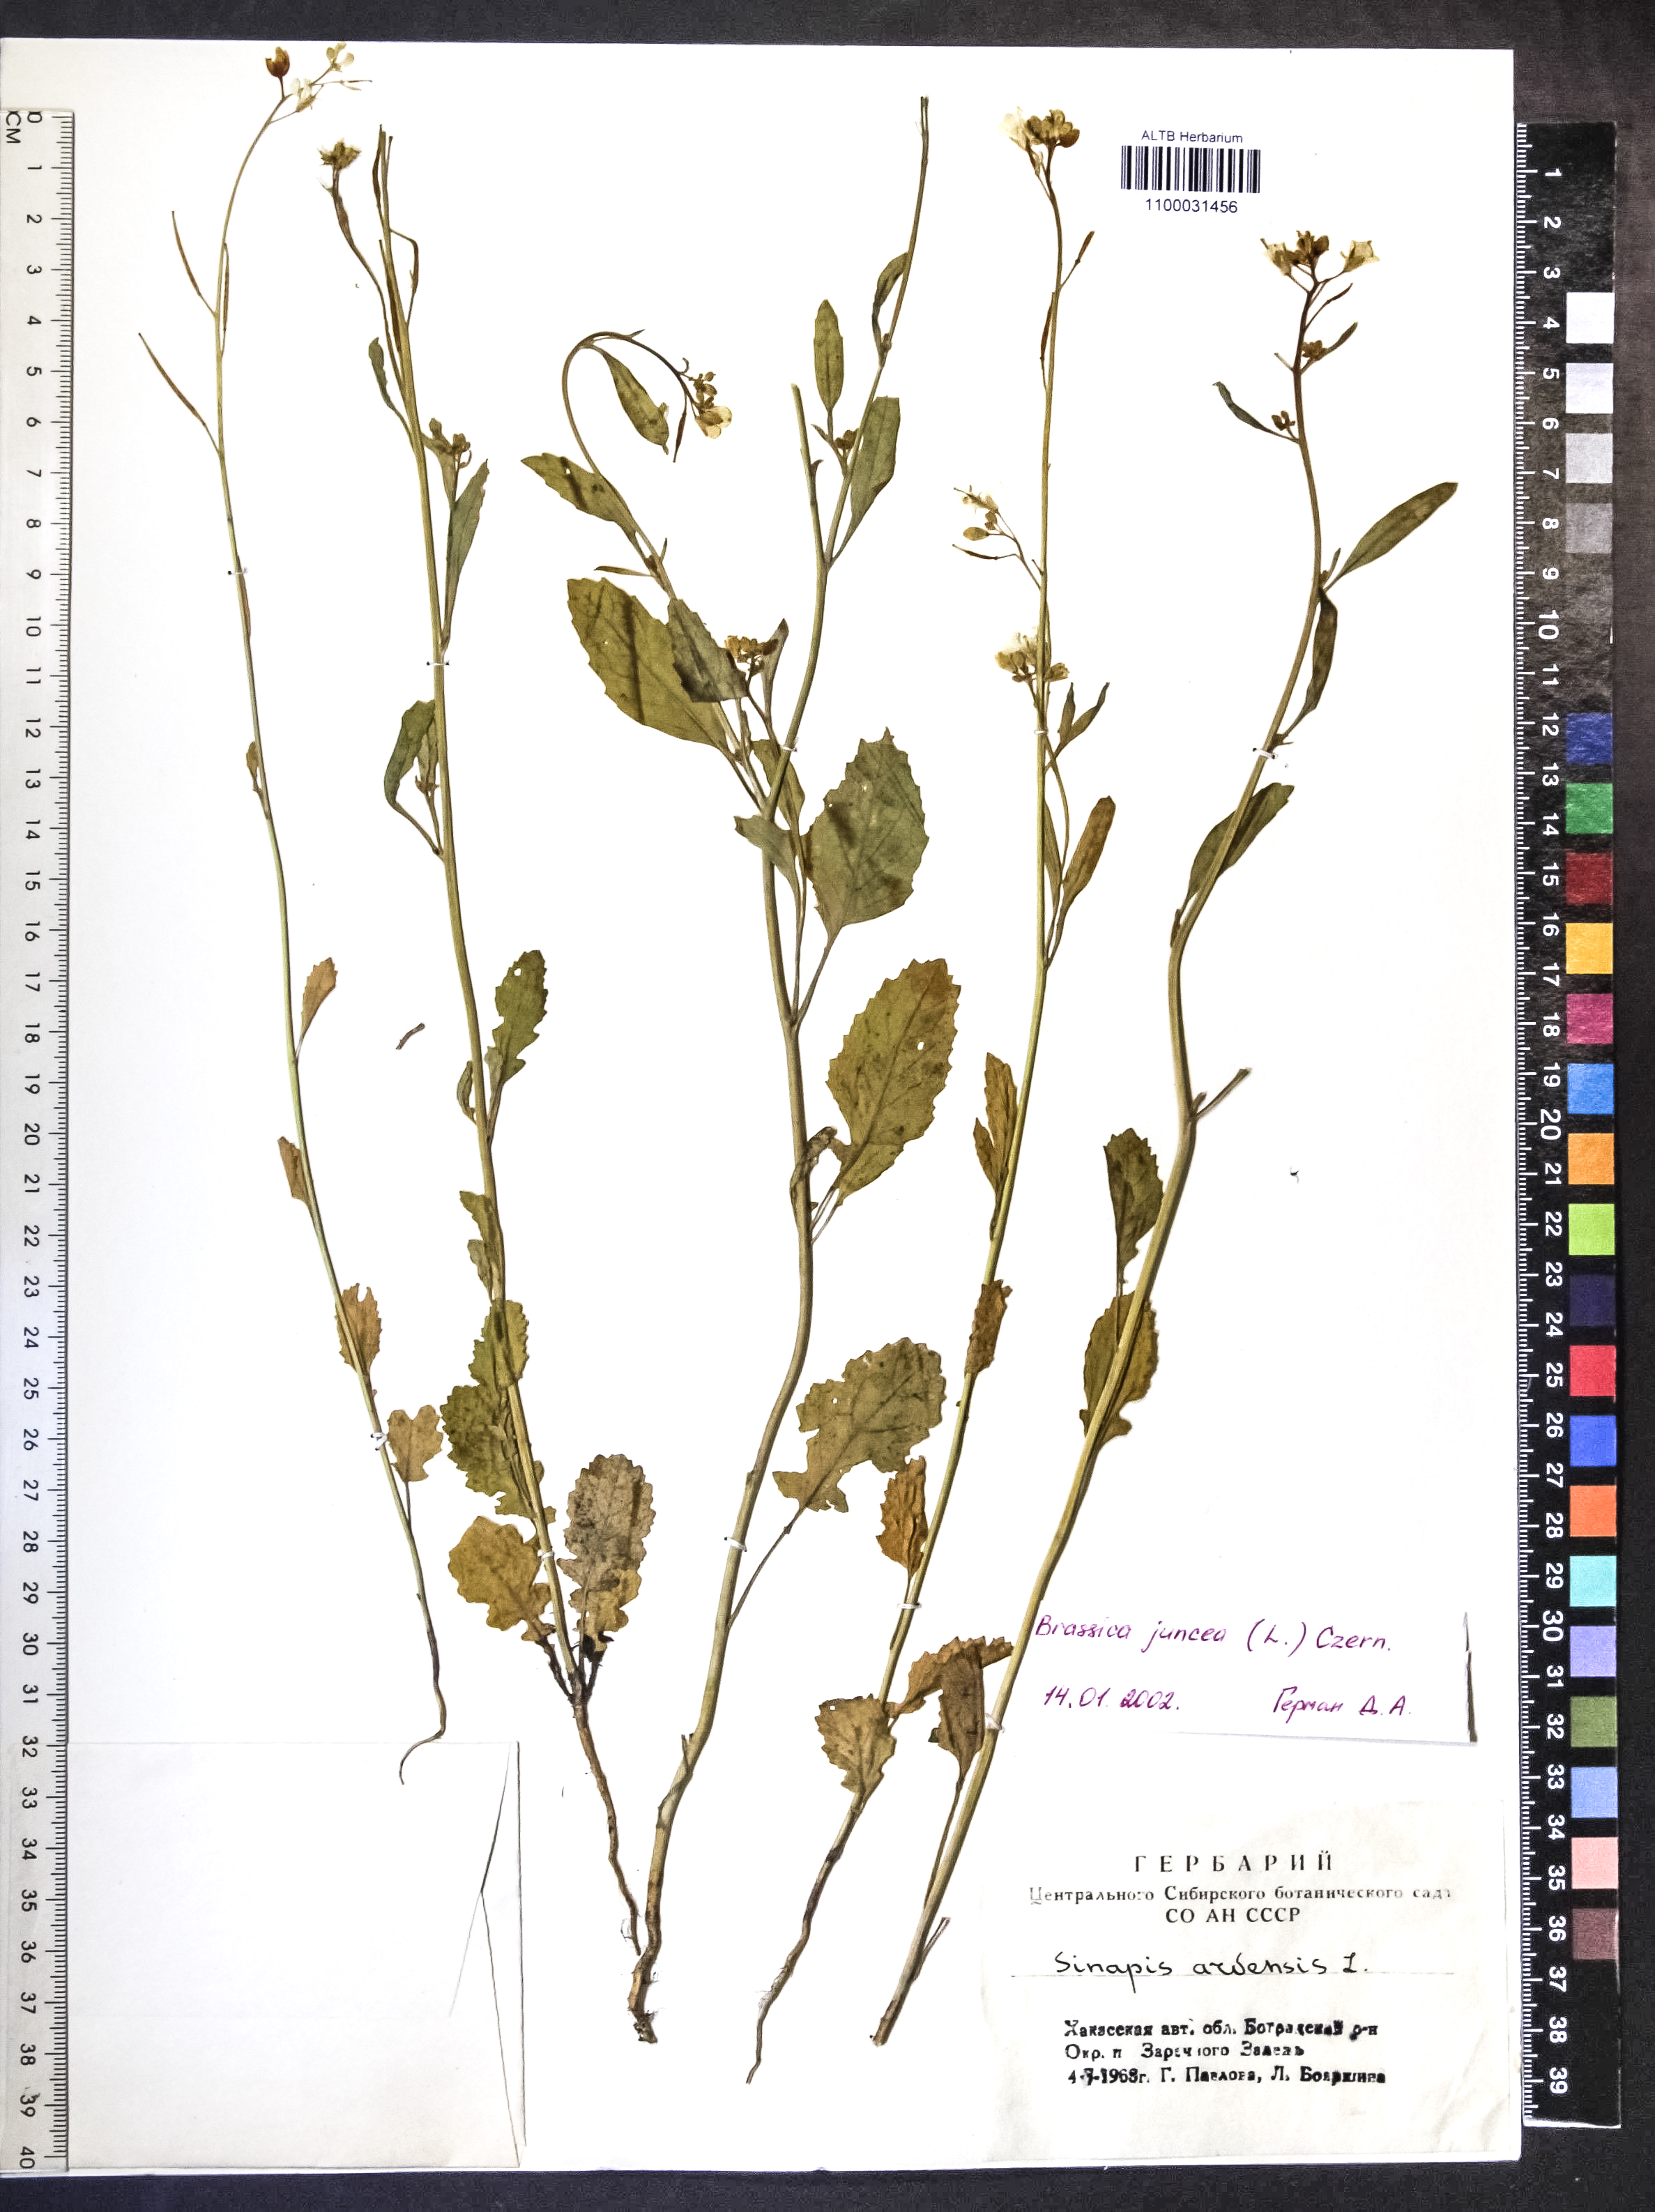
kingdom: Plantae
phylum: Tracheophyta
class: Magnoliopsida
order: Brassicales
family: Brassicaceae
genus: Brassica
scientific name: Brassica juncea
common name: Brown mustard
